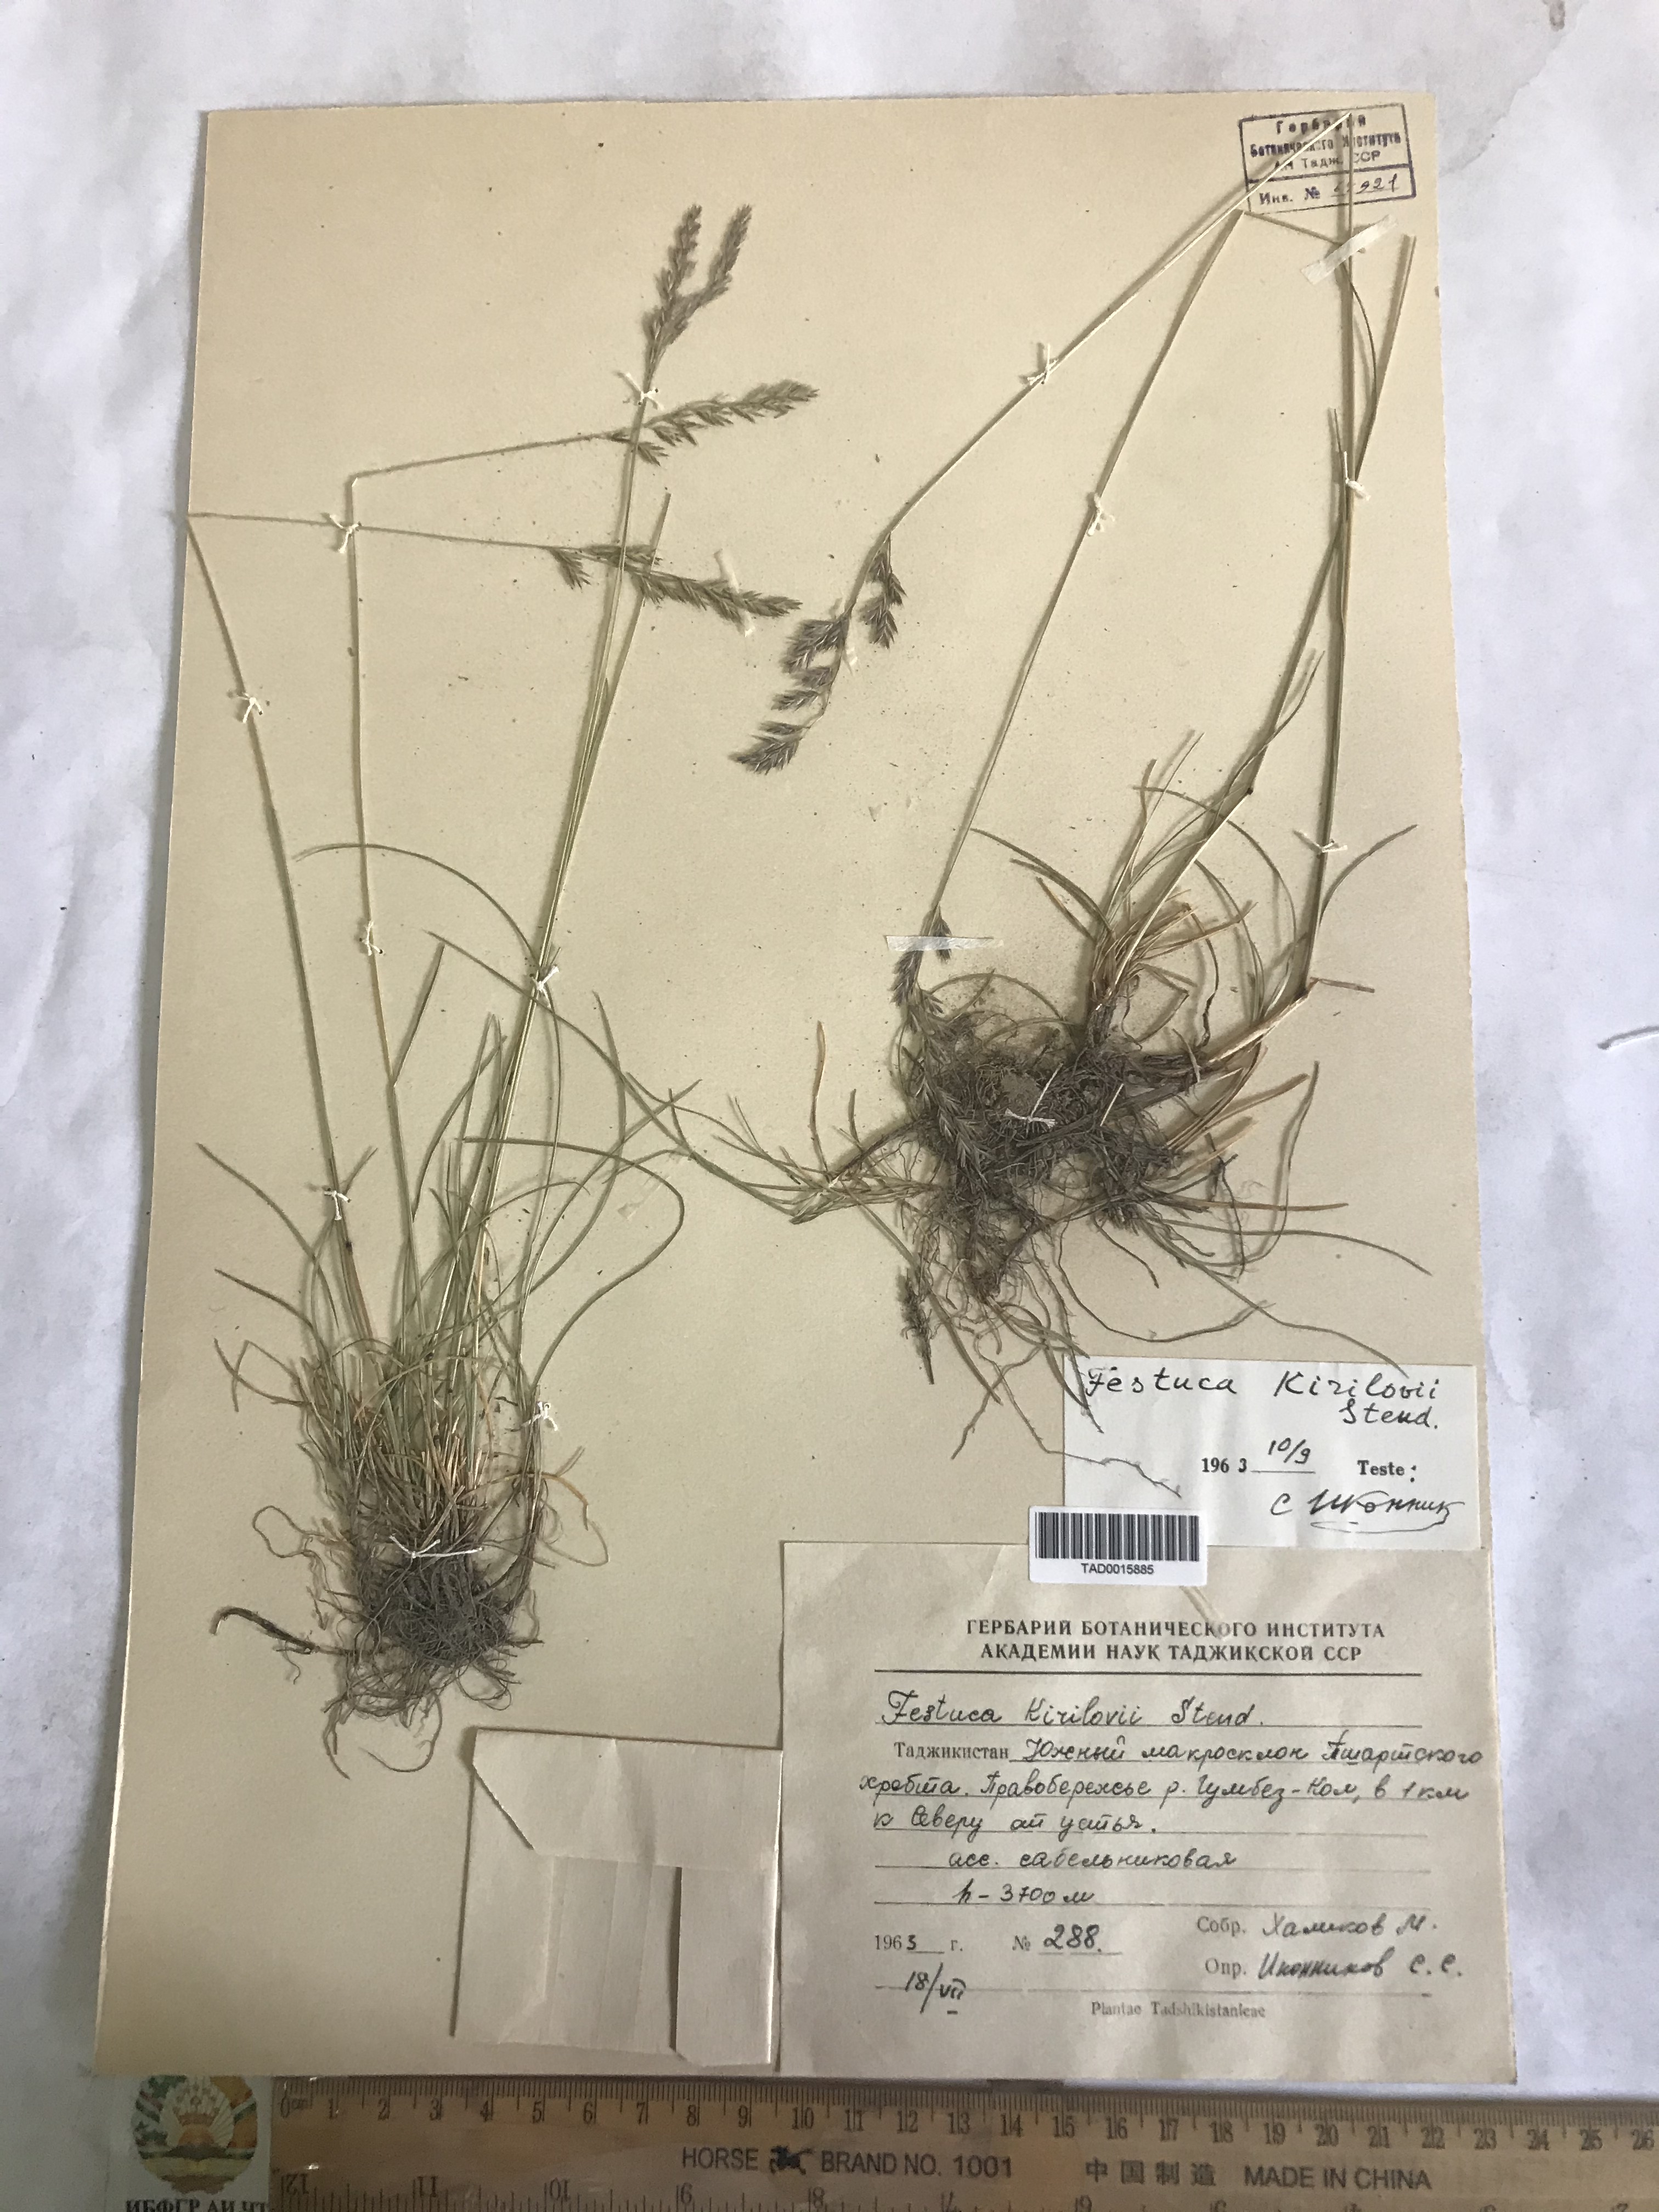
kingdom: Plantae
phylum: Tracheophyta
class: Liliopsida
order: Poales
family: Poaceae
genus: Festuca
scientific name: Festuca rubra
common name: Red fescue
